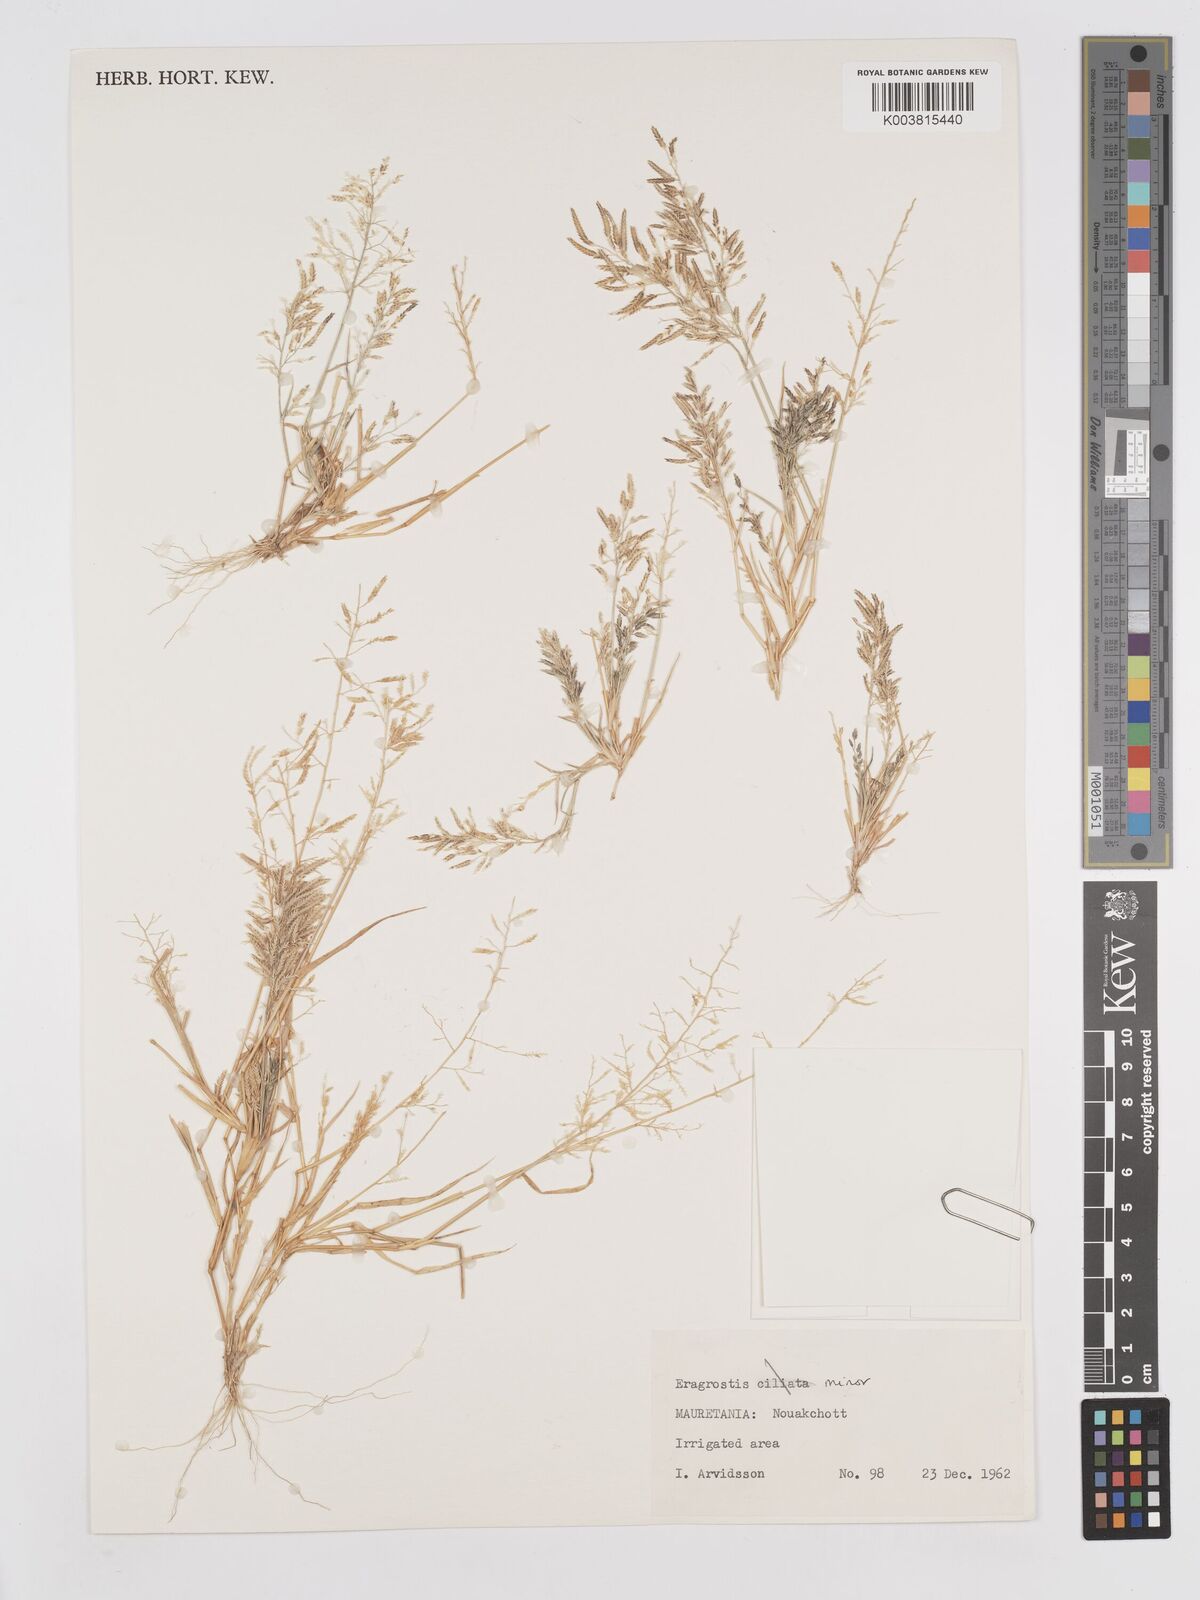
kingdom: Plantae
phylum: Tracheophyta
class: Liliopsida
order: Poales
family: Poaceae
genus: Eragrostis
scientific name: Eragrostis minor
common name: Small love-grass
